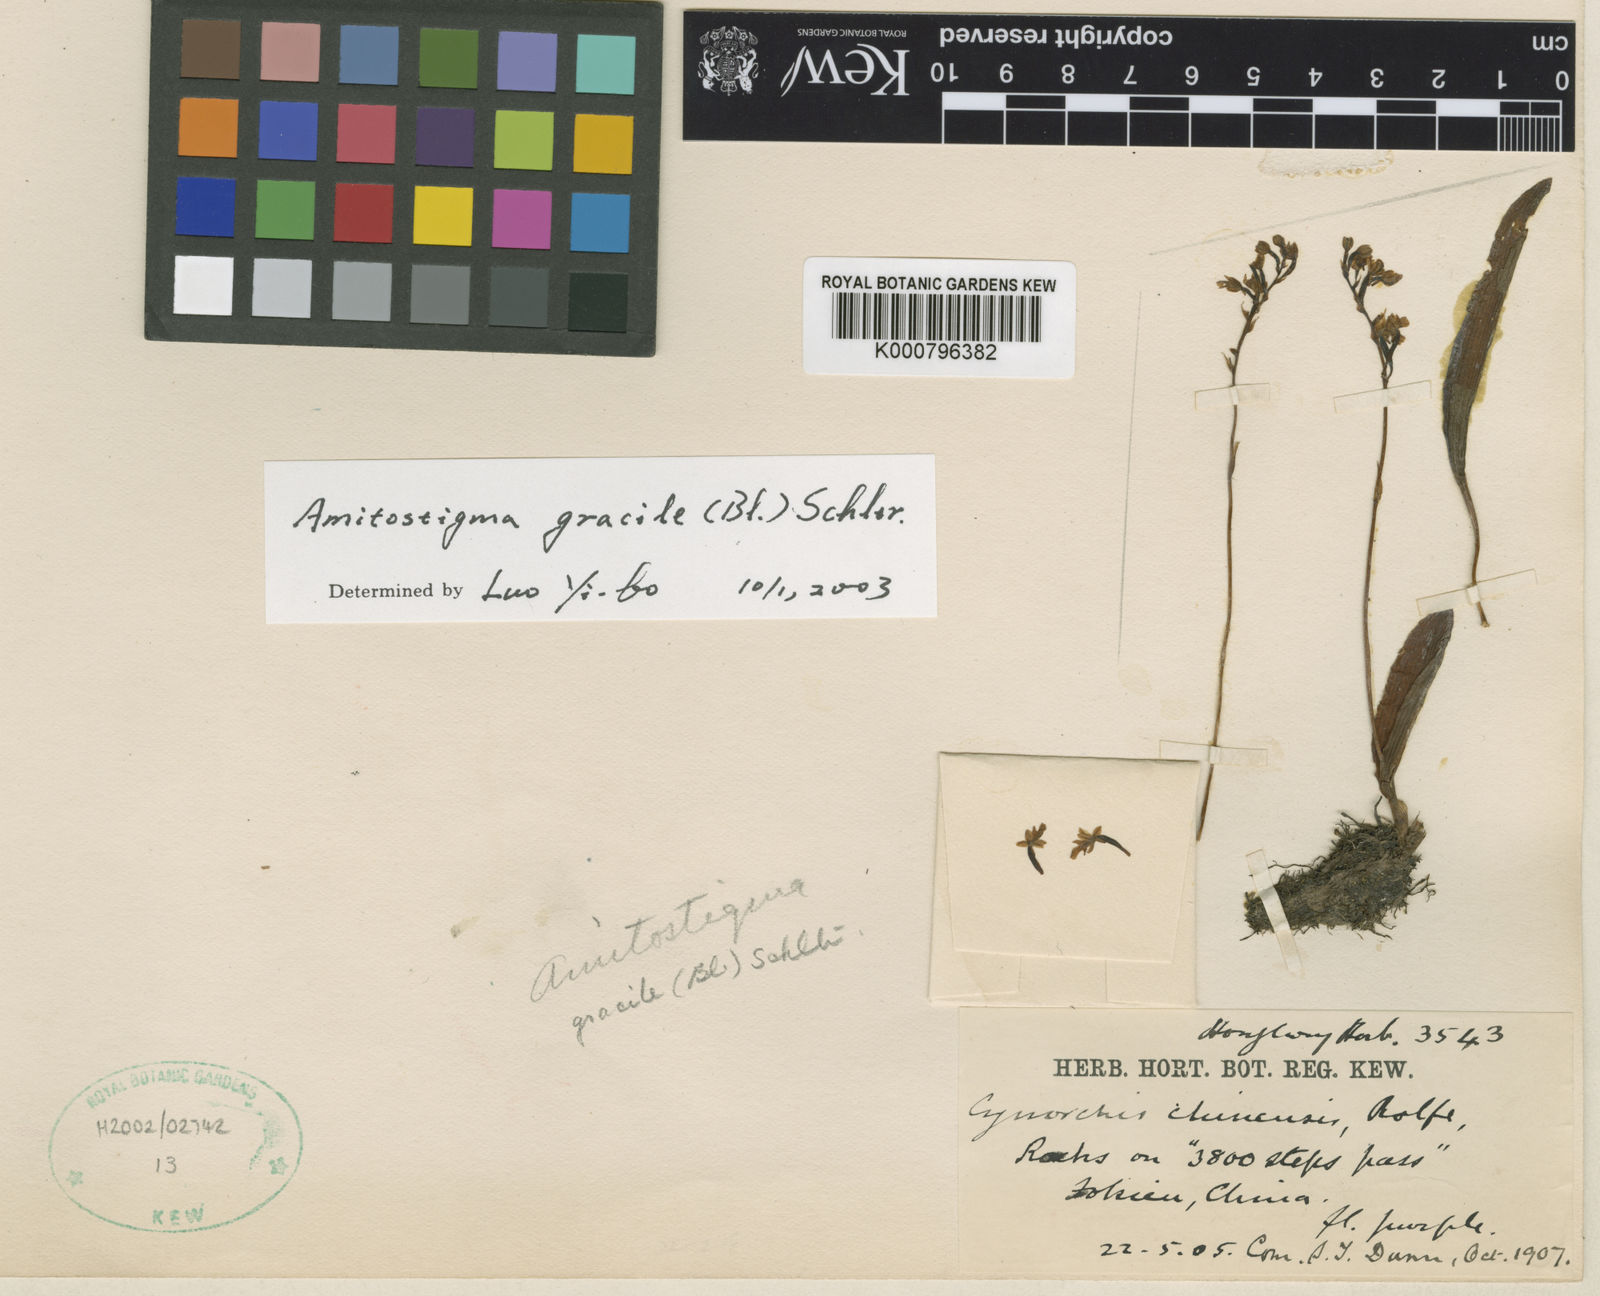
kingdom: Plantae
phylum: Tracheophyta
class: Liliopsida
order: Asparagales
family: Orchidaceae
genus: Hemipilia
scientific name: Hemipilia gracilis
